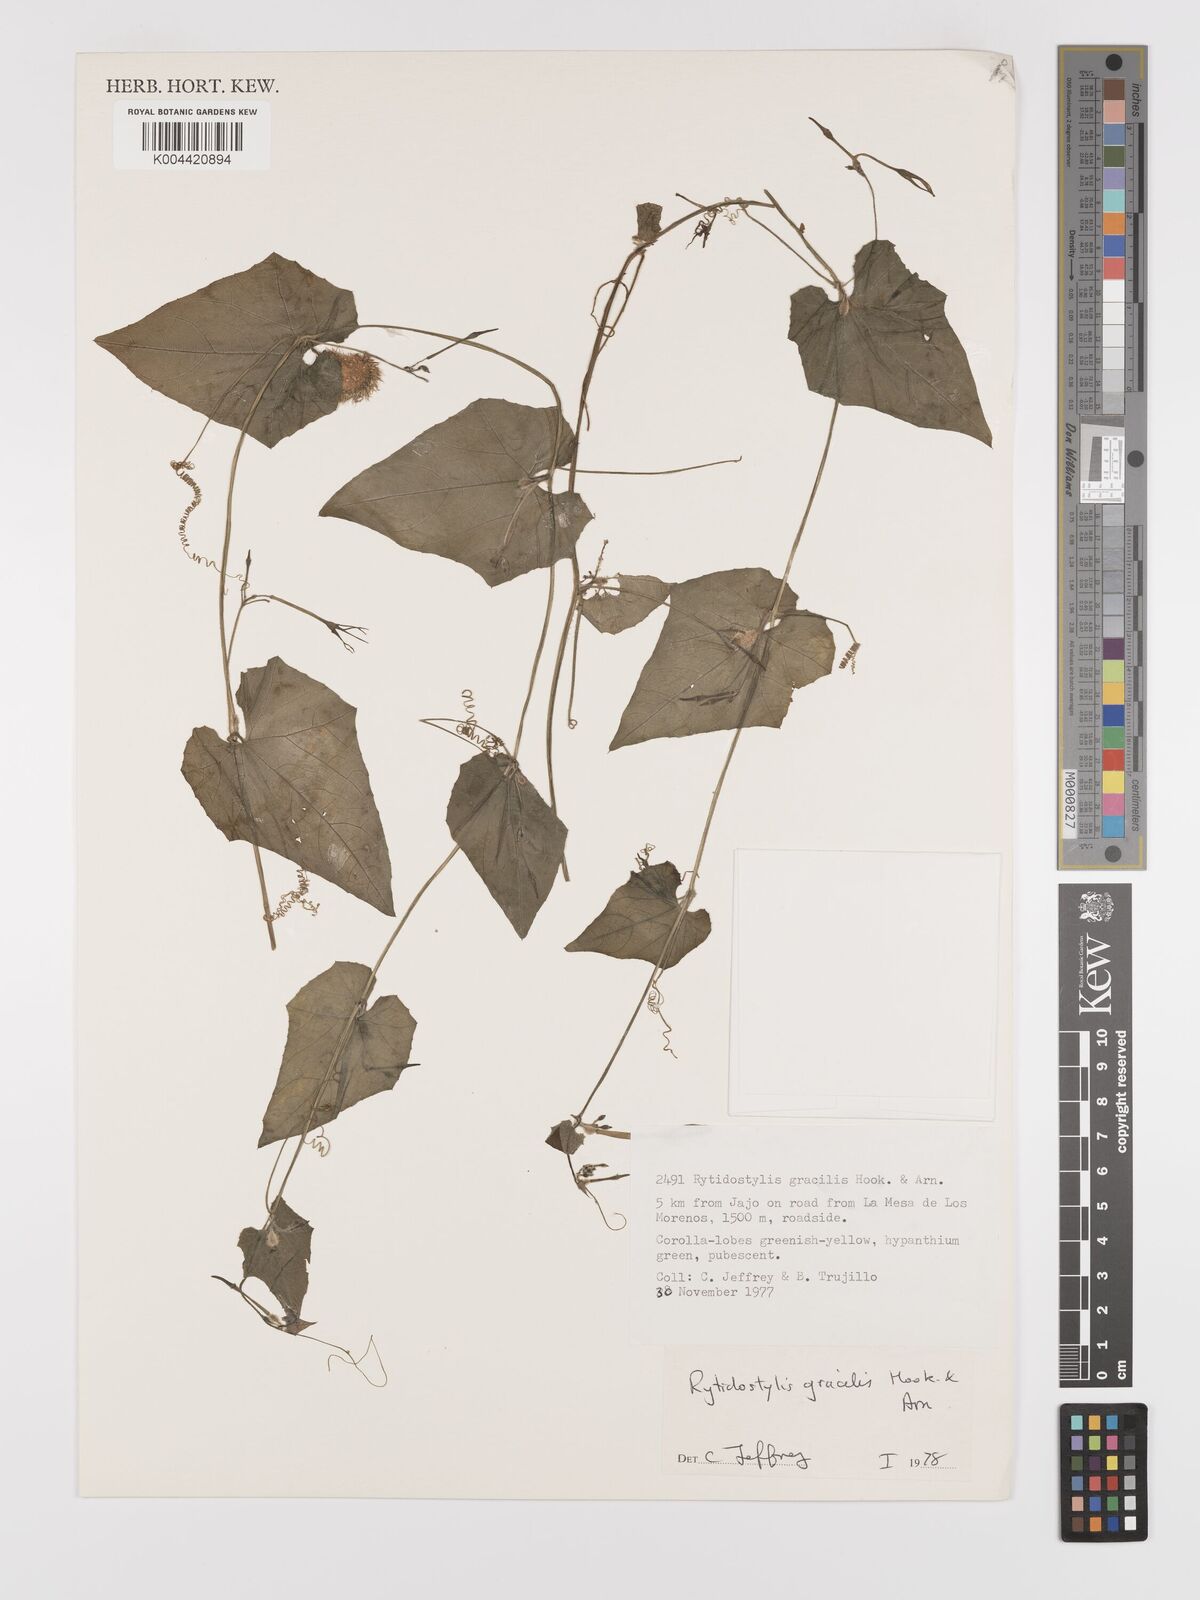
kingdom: Plantae
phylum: Tracheophyta
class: Magnoliopsida
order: Cucurbitales
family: Cucurbitaceae
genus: Cyclanthera
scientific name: Cyclanthera filiformis
